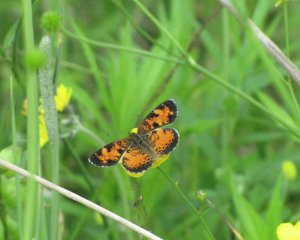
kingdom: Animalia
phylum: Arthropoda
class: Insecta
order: Lepidoptera
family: Nymphalidae
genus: Phyciodes
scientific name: Phyciodes tharos
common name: Northern Crescent
